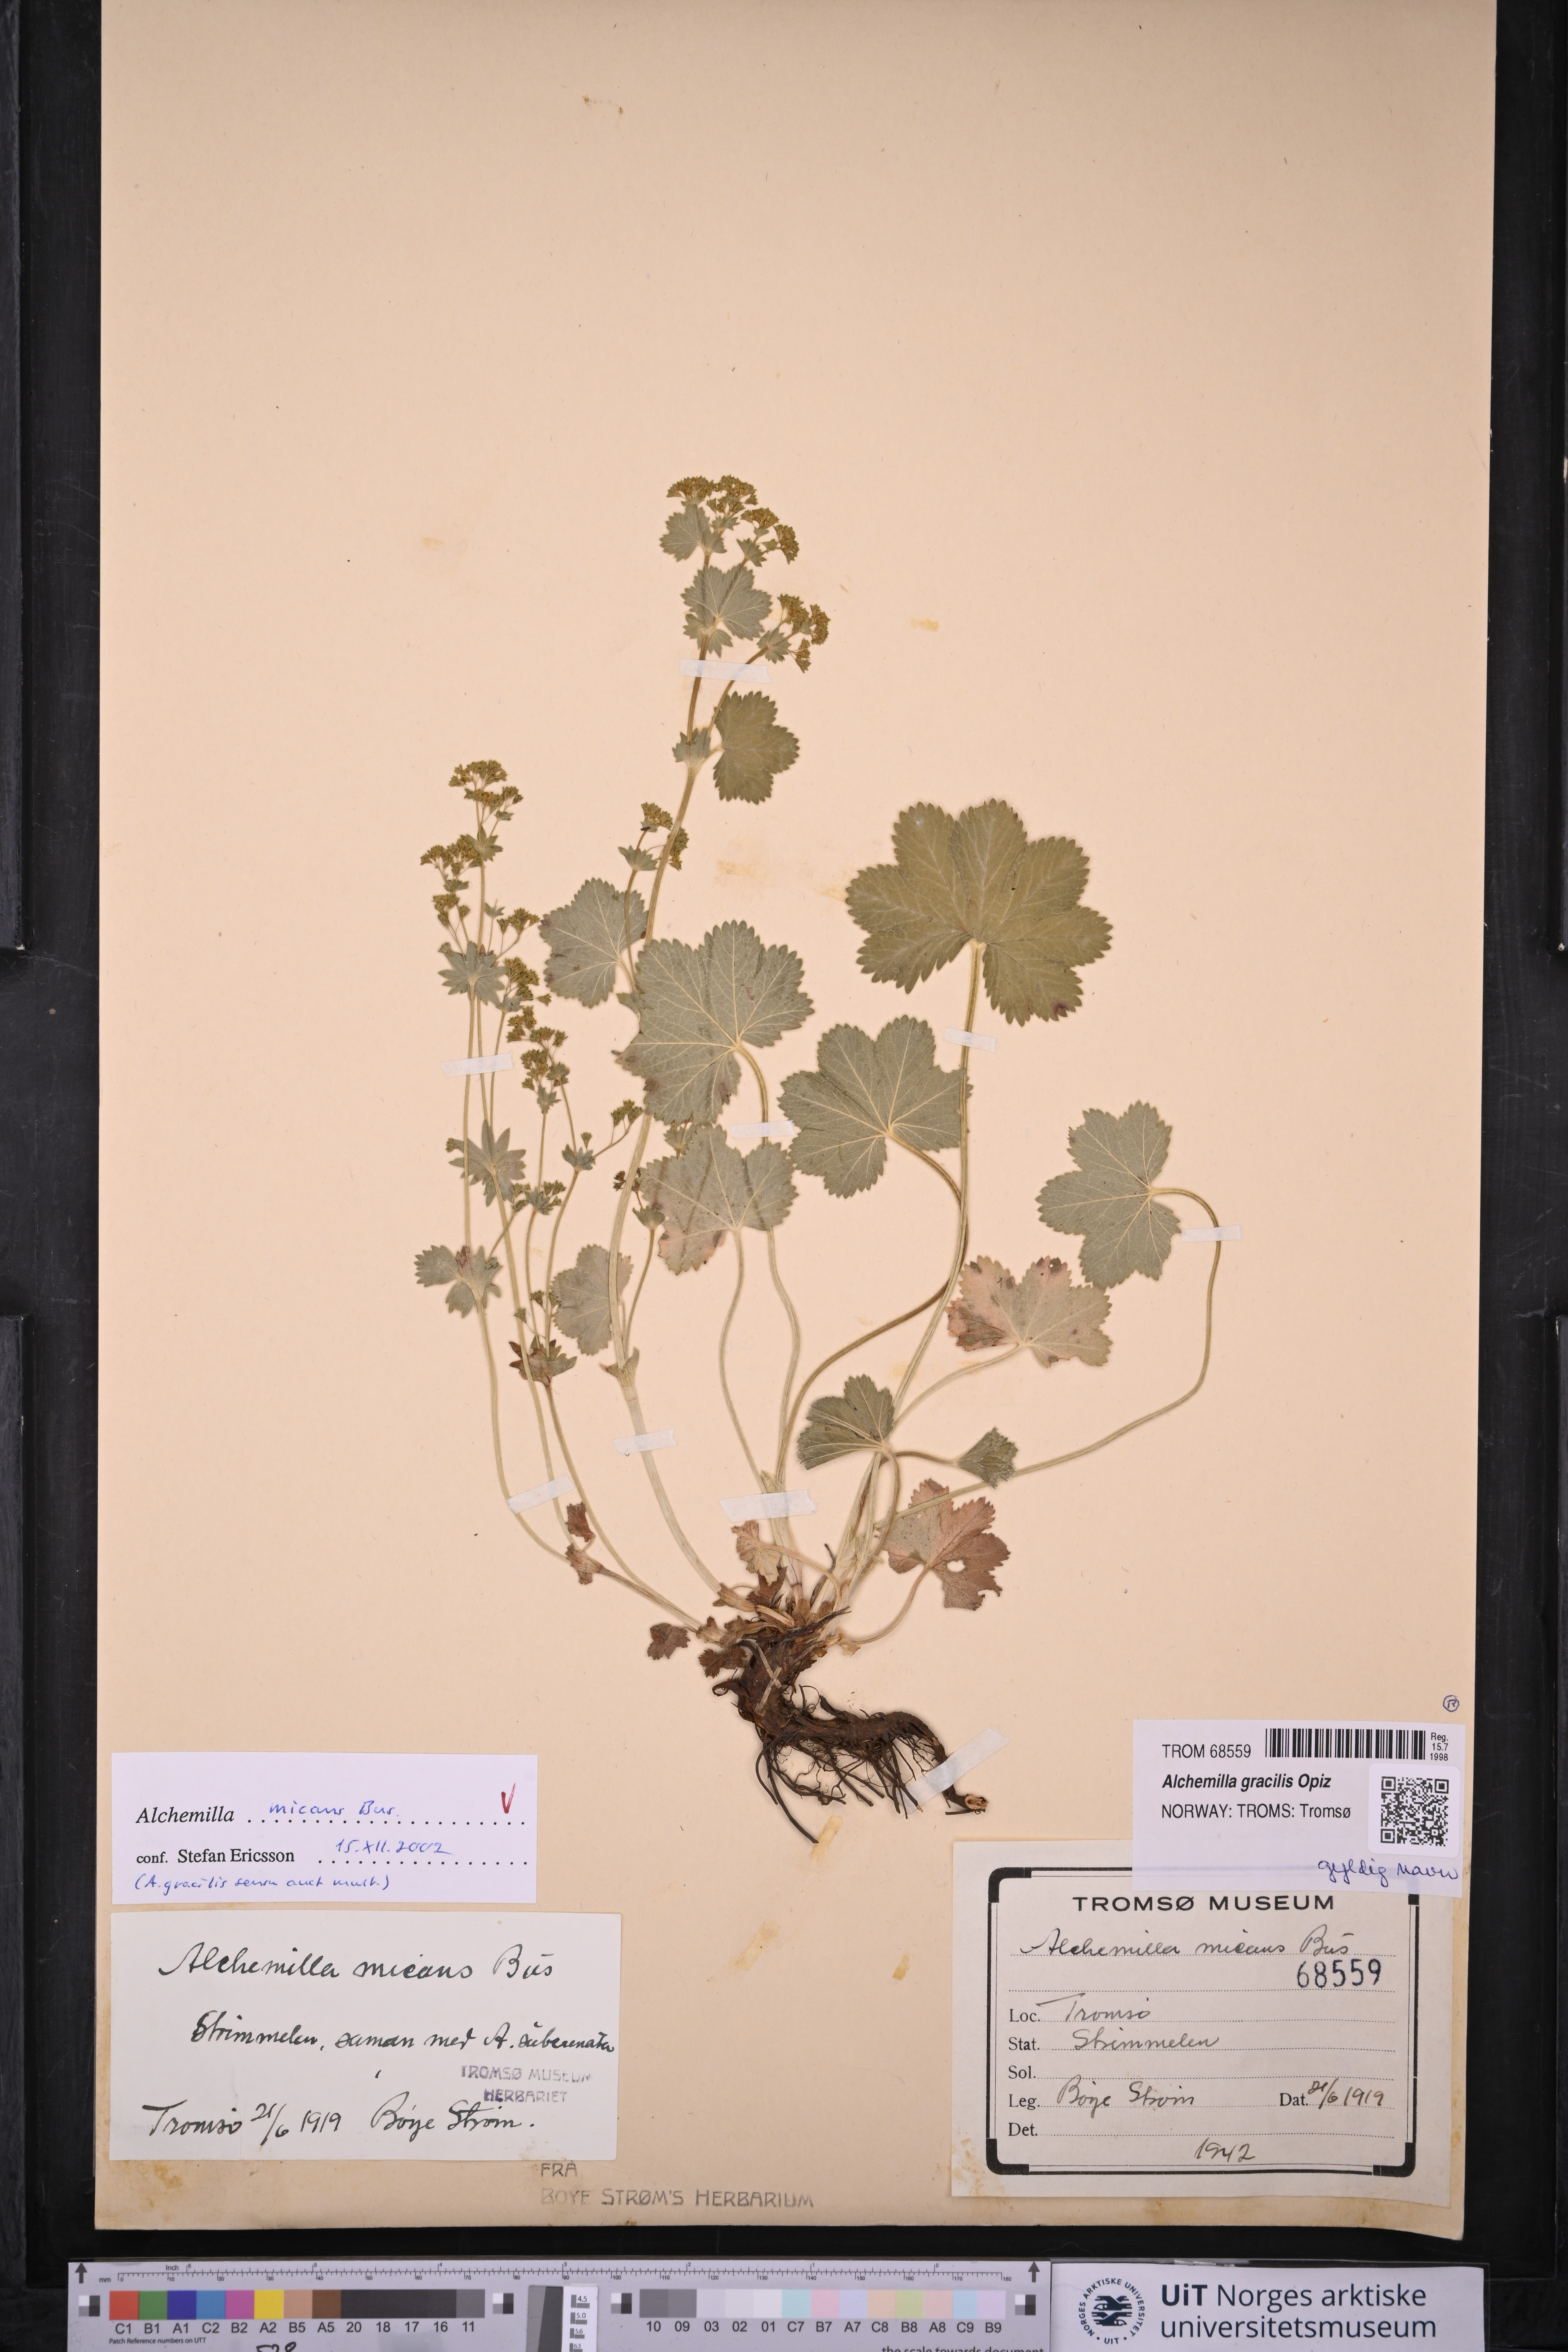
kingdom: Plantae
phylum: Tracheophyta
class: Magnoliopsida
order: Rosales
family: Rosaceae
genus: Alchemilla
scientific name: Alchemilla micans
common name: Gleaming lady's mantle
